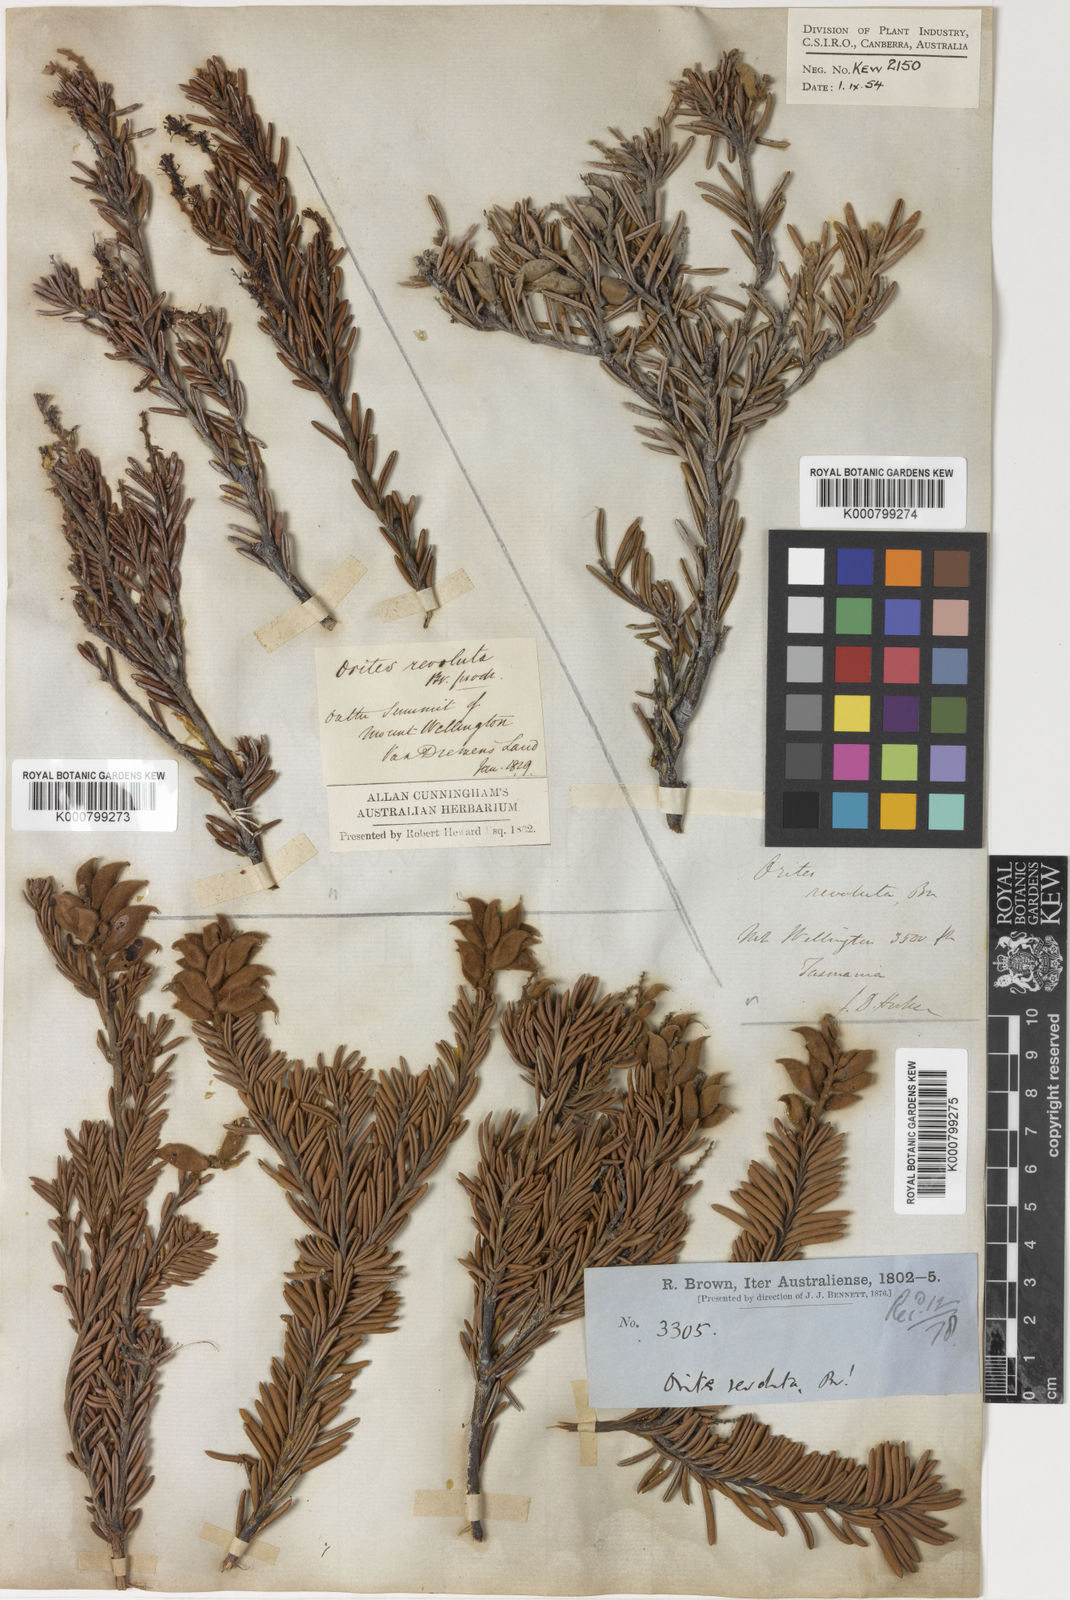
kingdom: Plantae
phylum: Tracheophyta
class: Magnoliopsida
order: Proteales
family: Proteaceae
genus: Orites
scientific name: Orites revolutus
